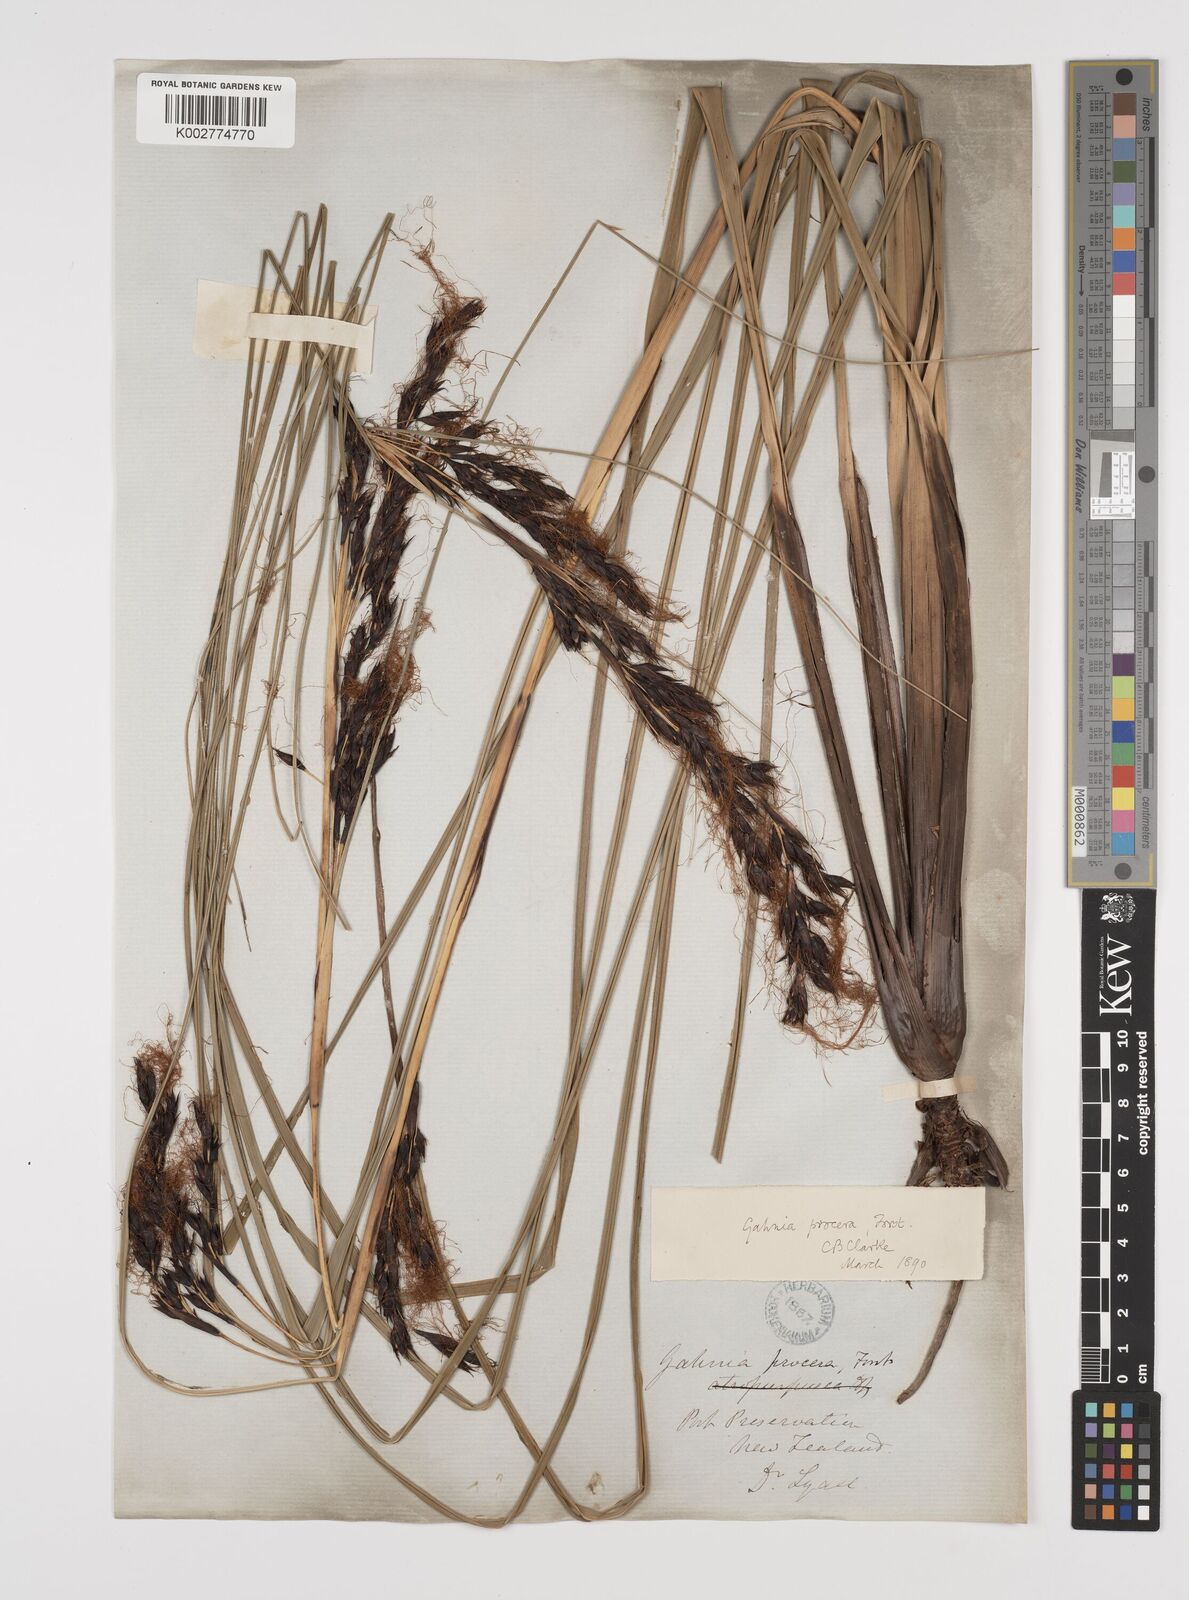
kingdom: Plantae
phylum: Tracheophyta
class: Liliopsida
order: Poales
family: Cyperaceae
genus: Gahnia
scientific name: Gahnia procera
